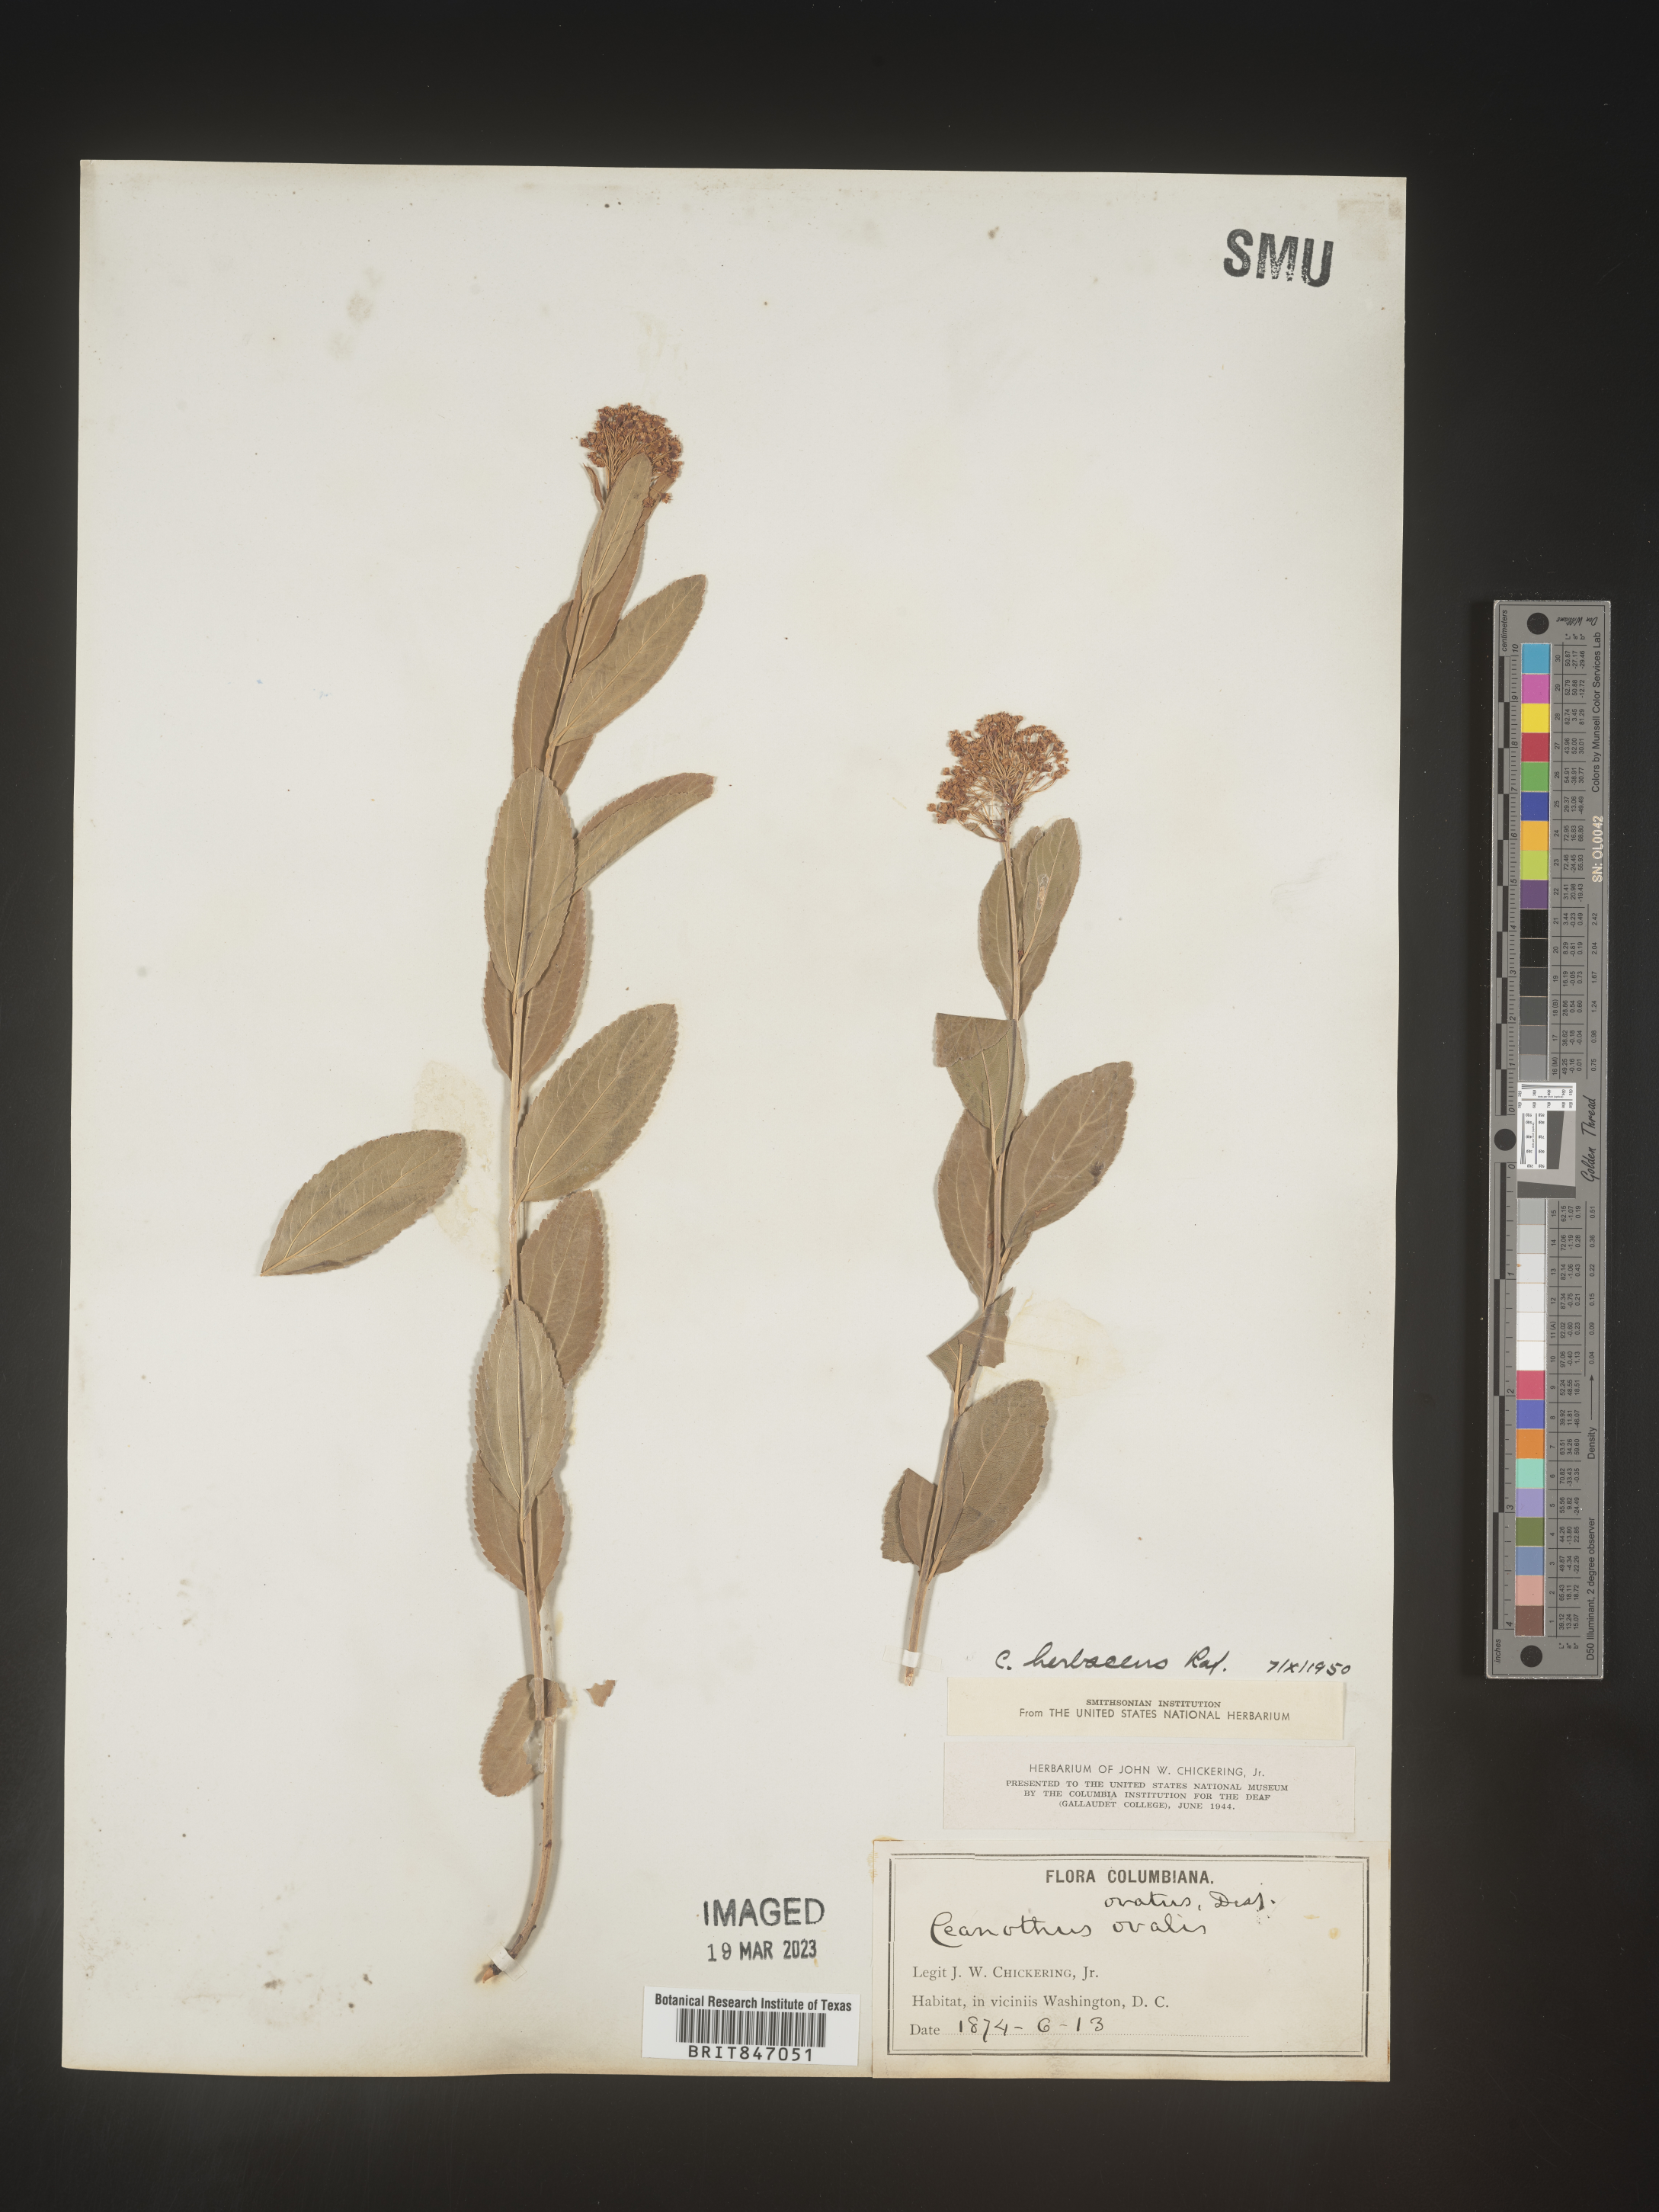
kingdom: Plantae
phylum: Tracheophyta
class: Magnoliopsida
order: Rosales
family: Rhamnaceae
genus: Ceanothus
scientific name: Ceanothus herbaceus
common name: Inland ceanothus
